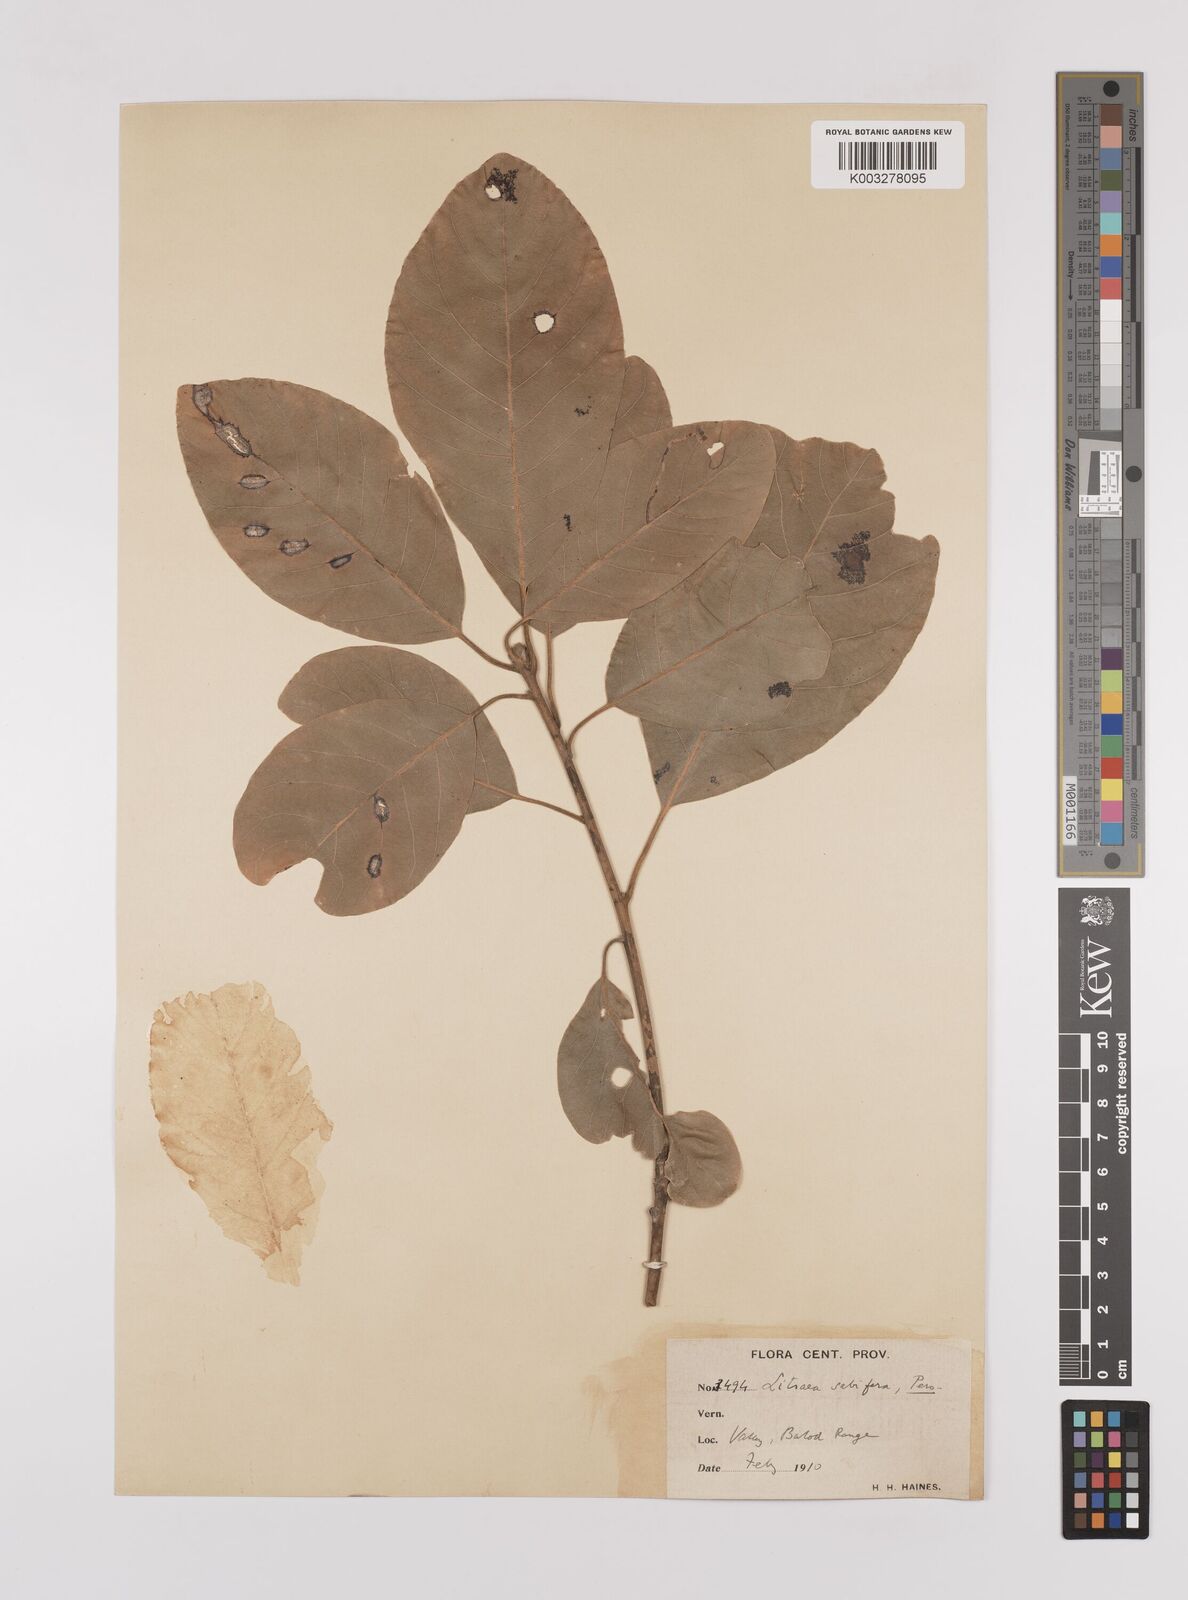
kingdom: Plantae
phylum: Tracheophyta
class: Magnoliopsida
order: Laurales
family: Lauraceae
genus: Litsea
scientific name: Litsea
